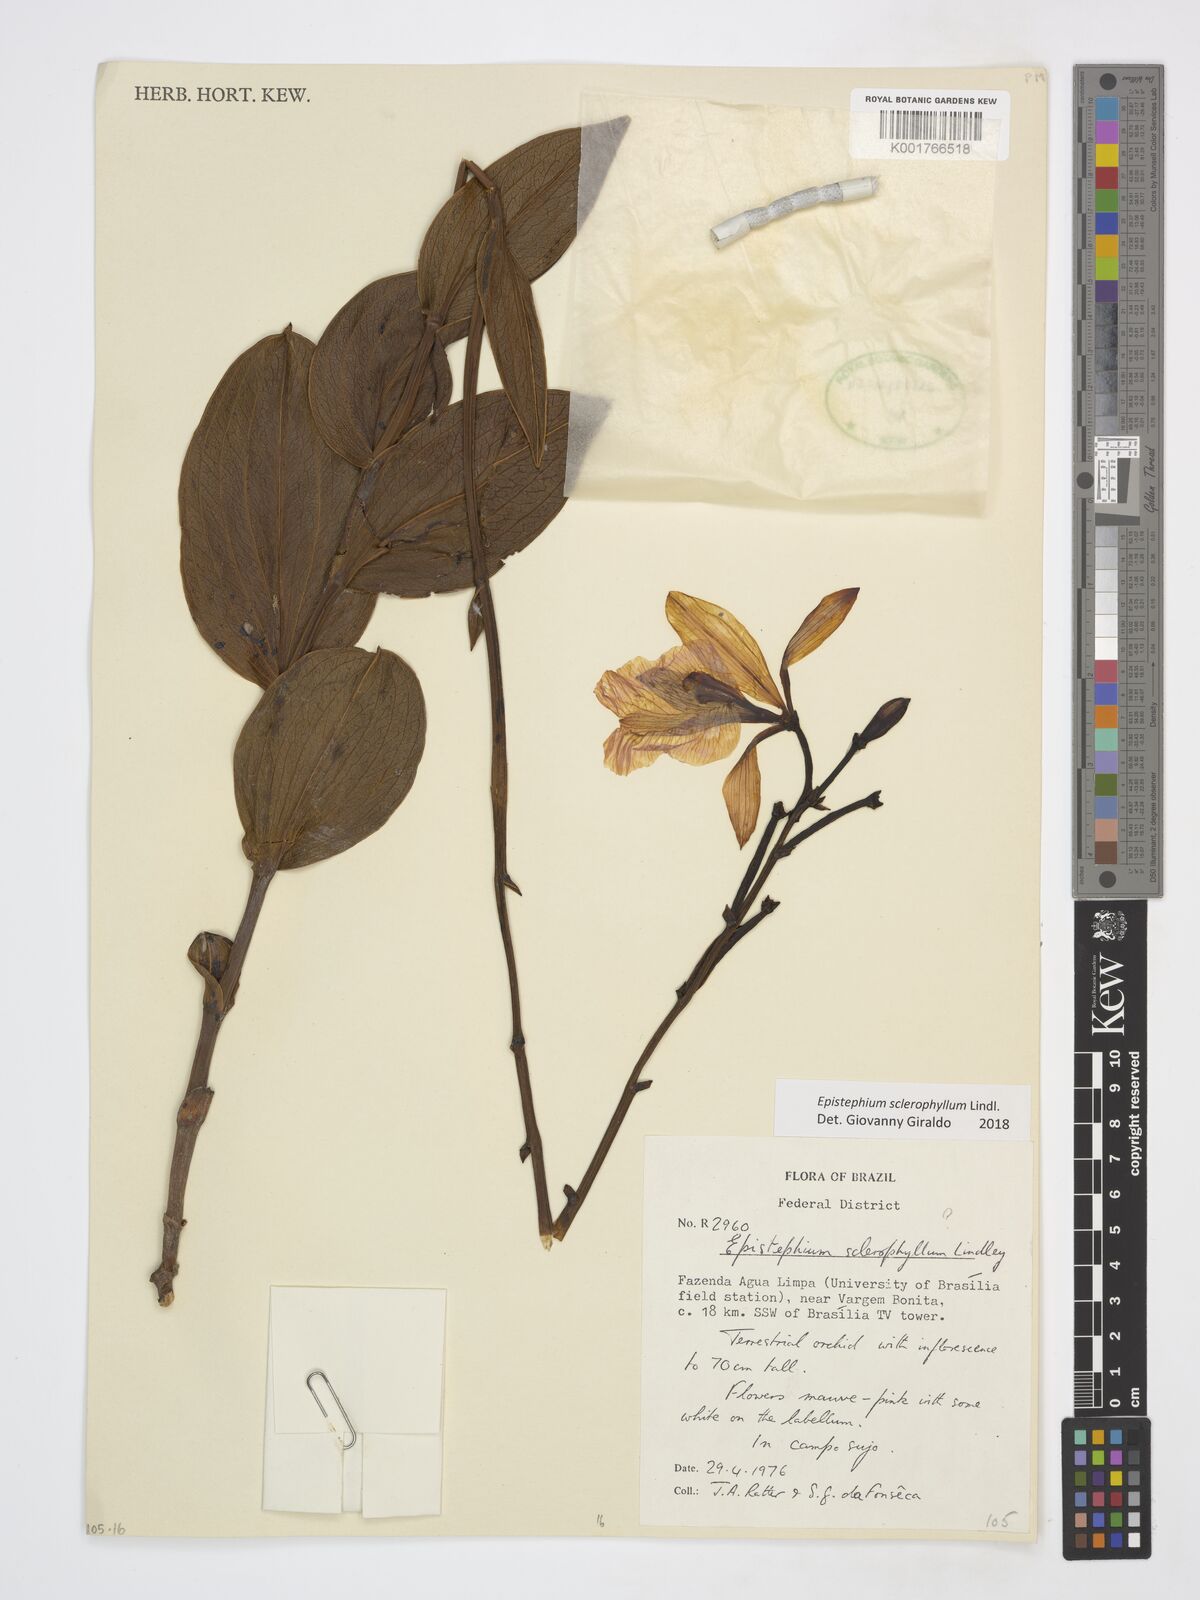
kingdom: Plantae
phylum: Tracheophyta
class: Liliopsida
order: Asparagales
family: Orchidaceae
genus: Epistephium
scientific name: Epistephium sclerophyllum
